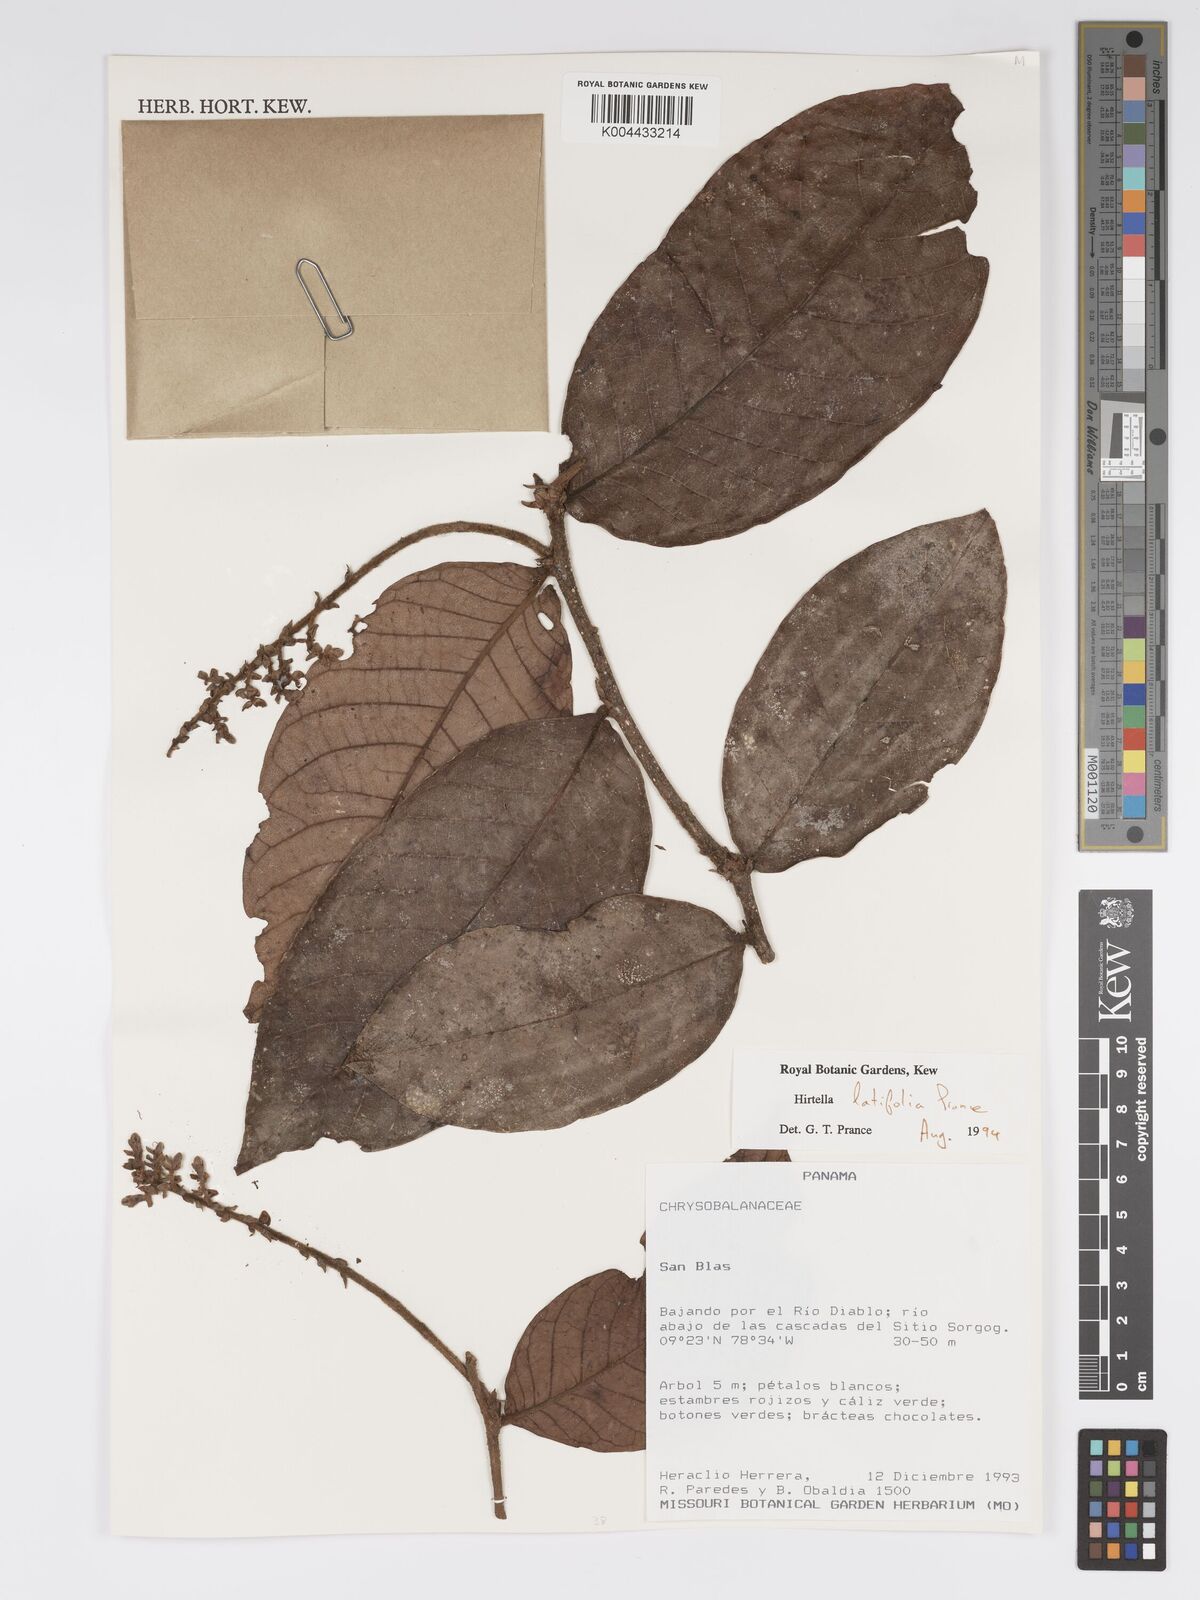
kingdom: Plantae
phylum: Tracheophyta
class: Magnoliopsida
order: Malpighiales
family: Chrysobalanaceae
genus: Hirtella
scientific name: Hirtella latifolia
